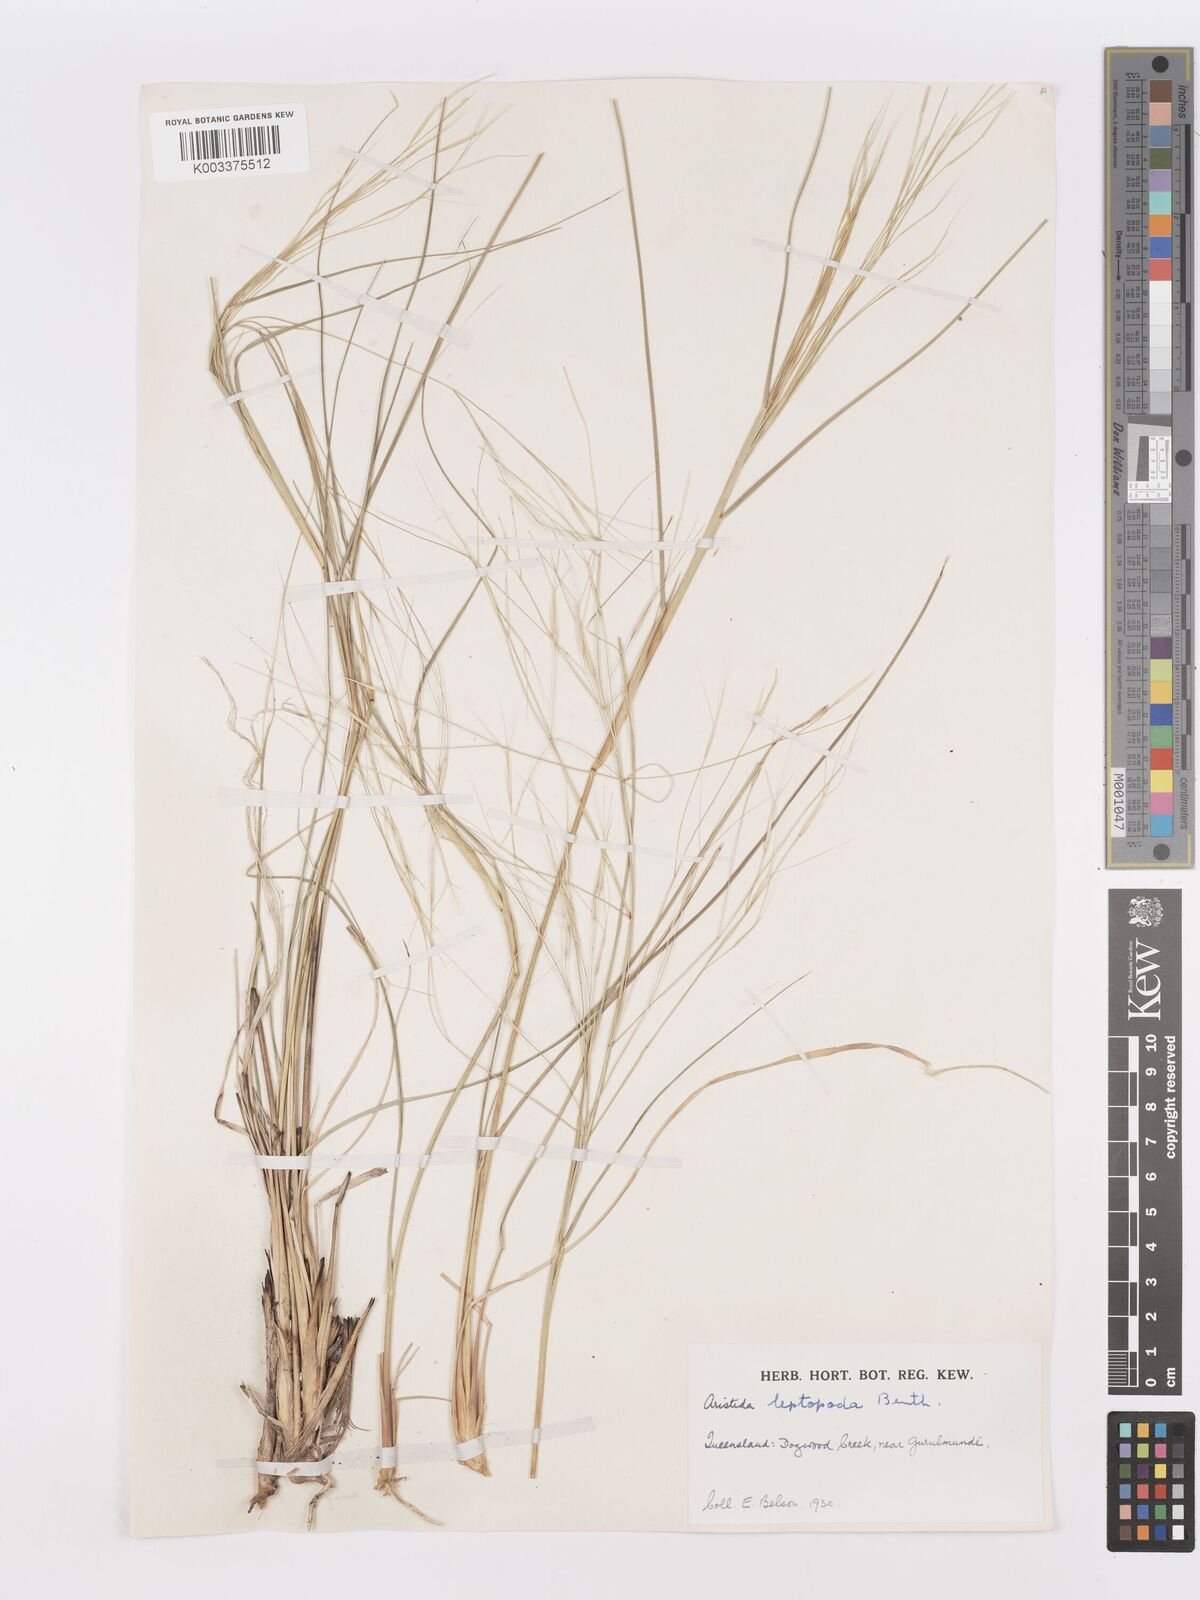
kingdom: Plantae
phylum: Tracheophyta
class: Liliopsida
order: Poales
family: Poaceae
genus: Aristida
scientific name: Aristida leptopoda
